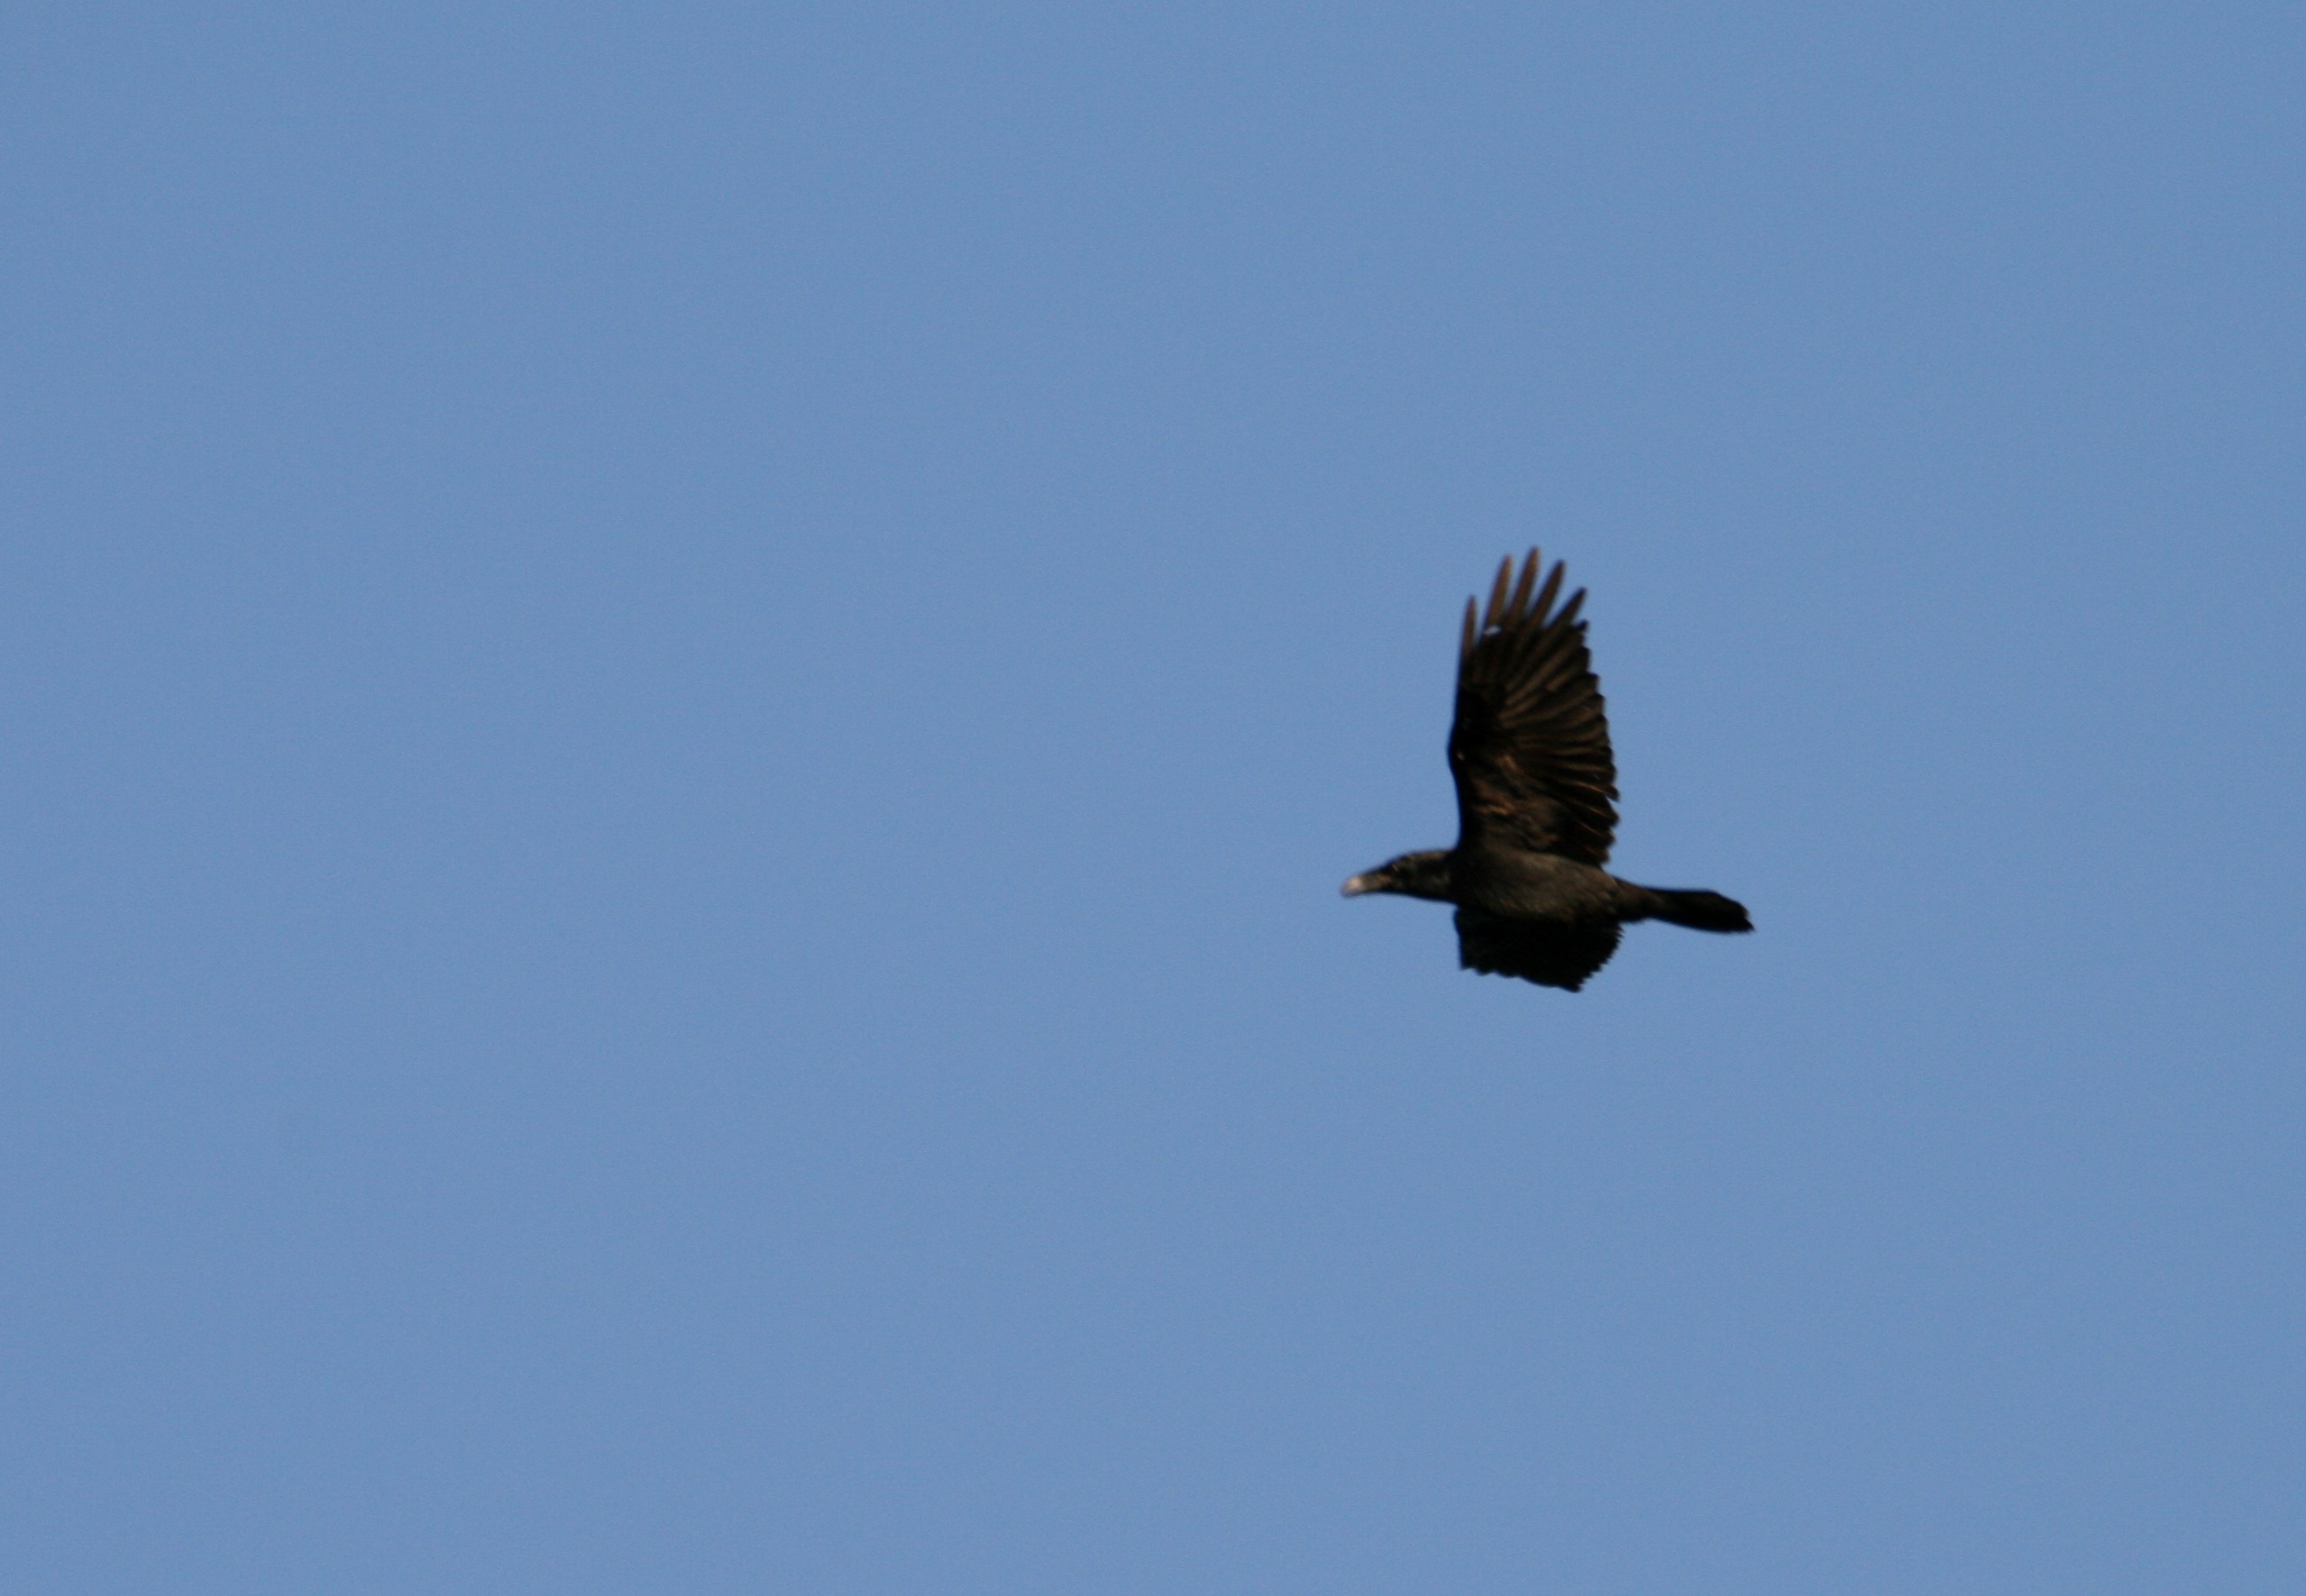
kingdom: Animalia
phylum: Chordata
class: Aves
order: Passeriformes
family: Corvidae
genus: Corvus
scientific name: Corvus corax
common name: Ravn
